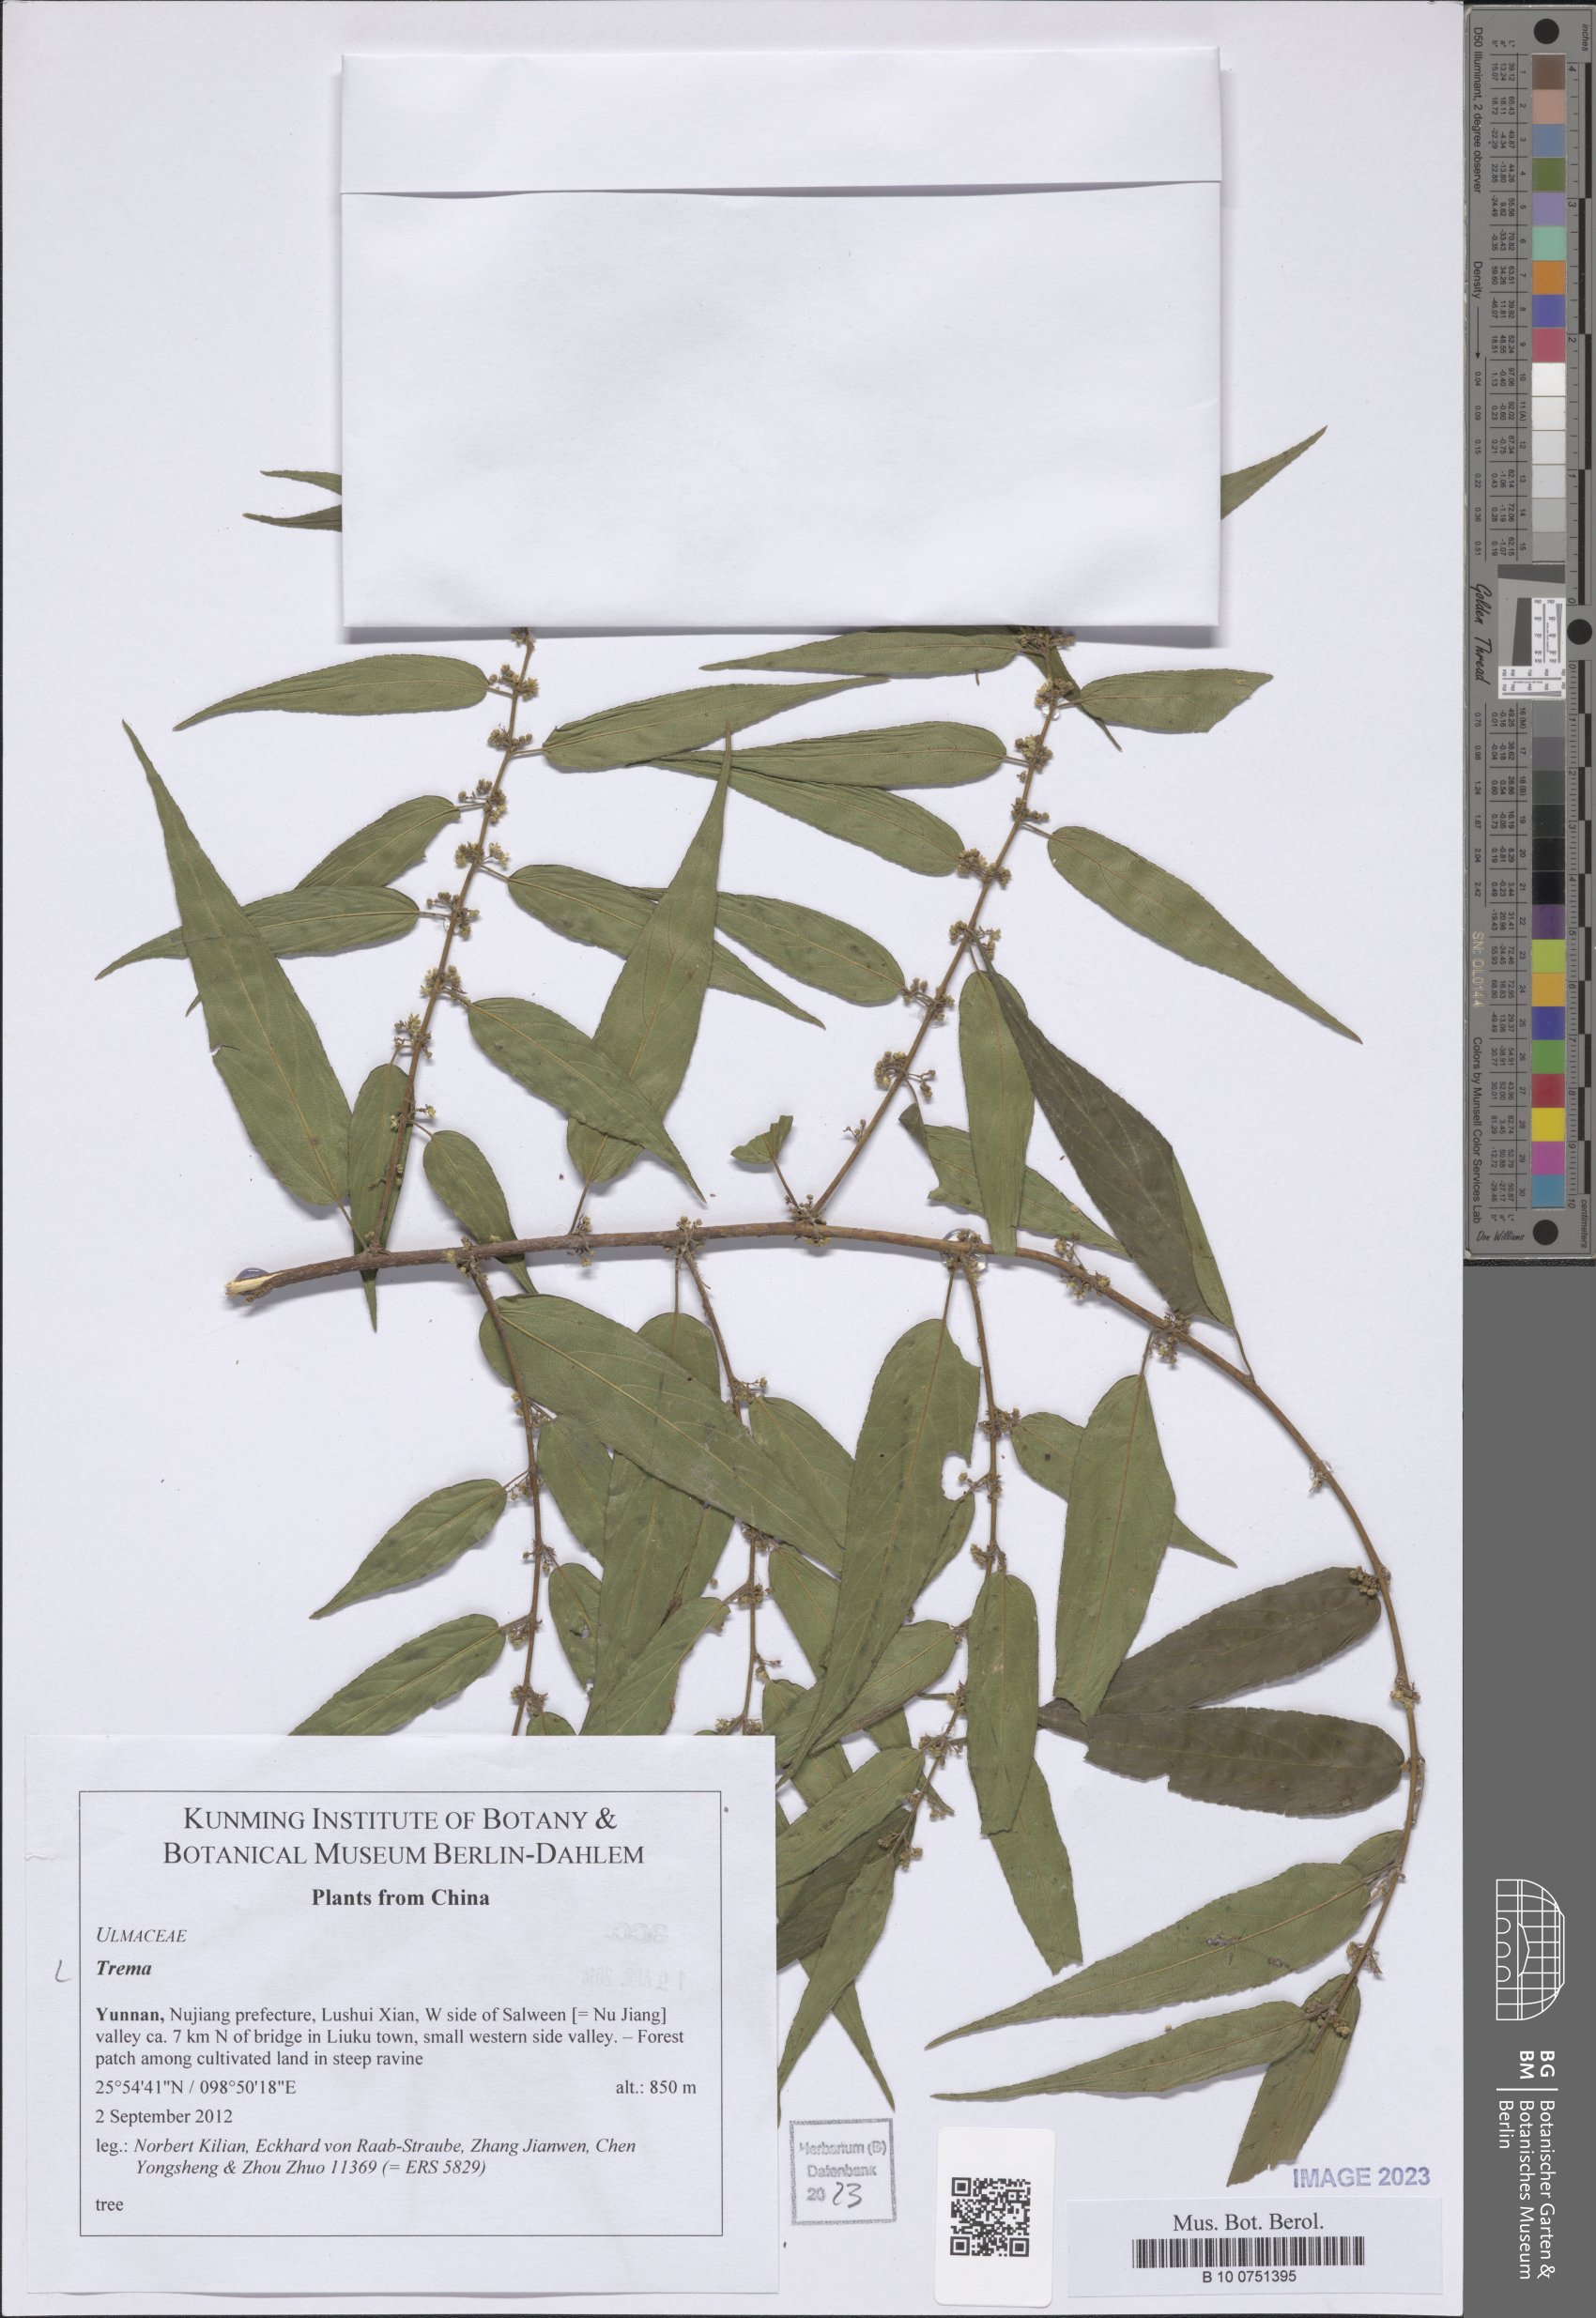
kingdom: Plantae
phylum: Tracheophyta
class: Magnoliopsida
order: Rosales
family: Cannabaceae
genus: Trema
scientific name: Trema
